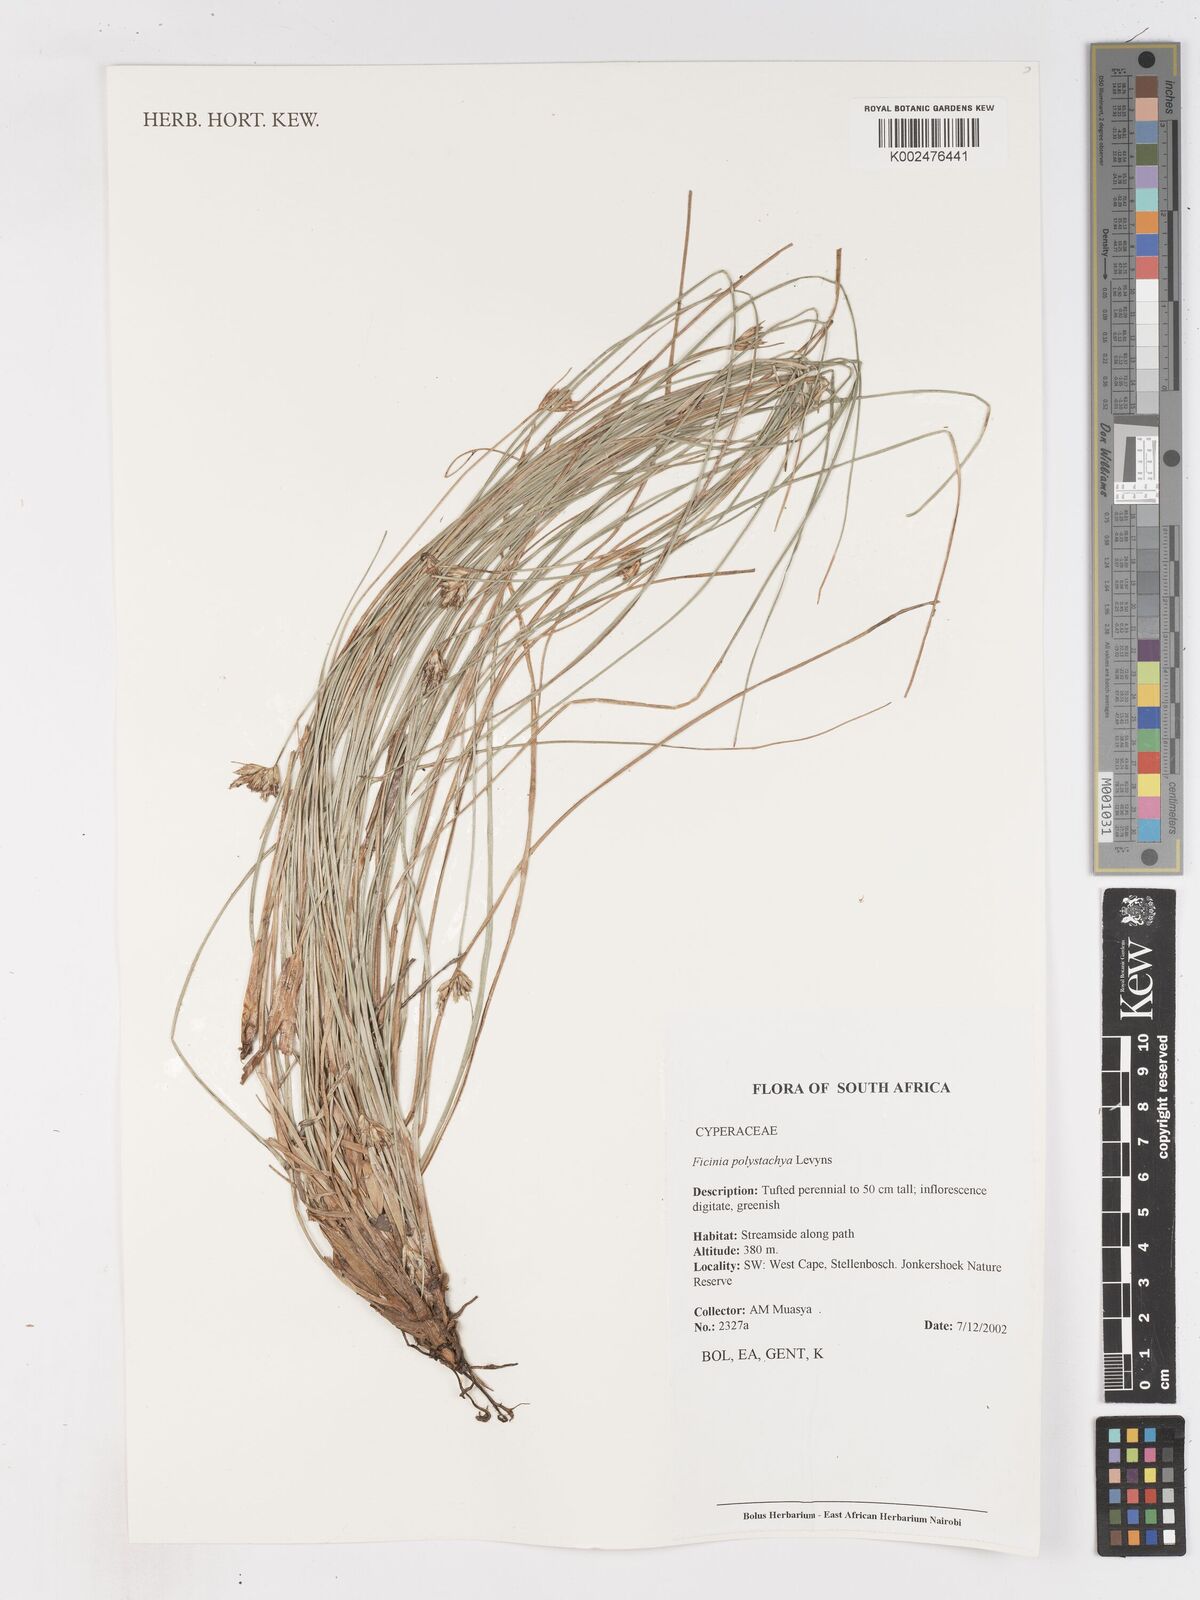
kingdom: Plantae
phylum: Tracheophyta
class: Liliopsida
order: Poales
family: Cyperaceae
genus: Ficinia
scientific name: Ficinia polystachya
